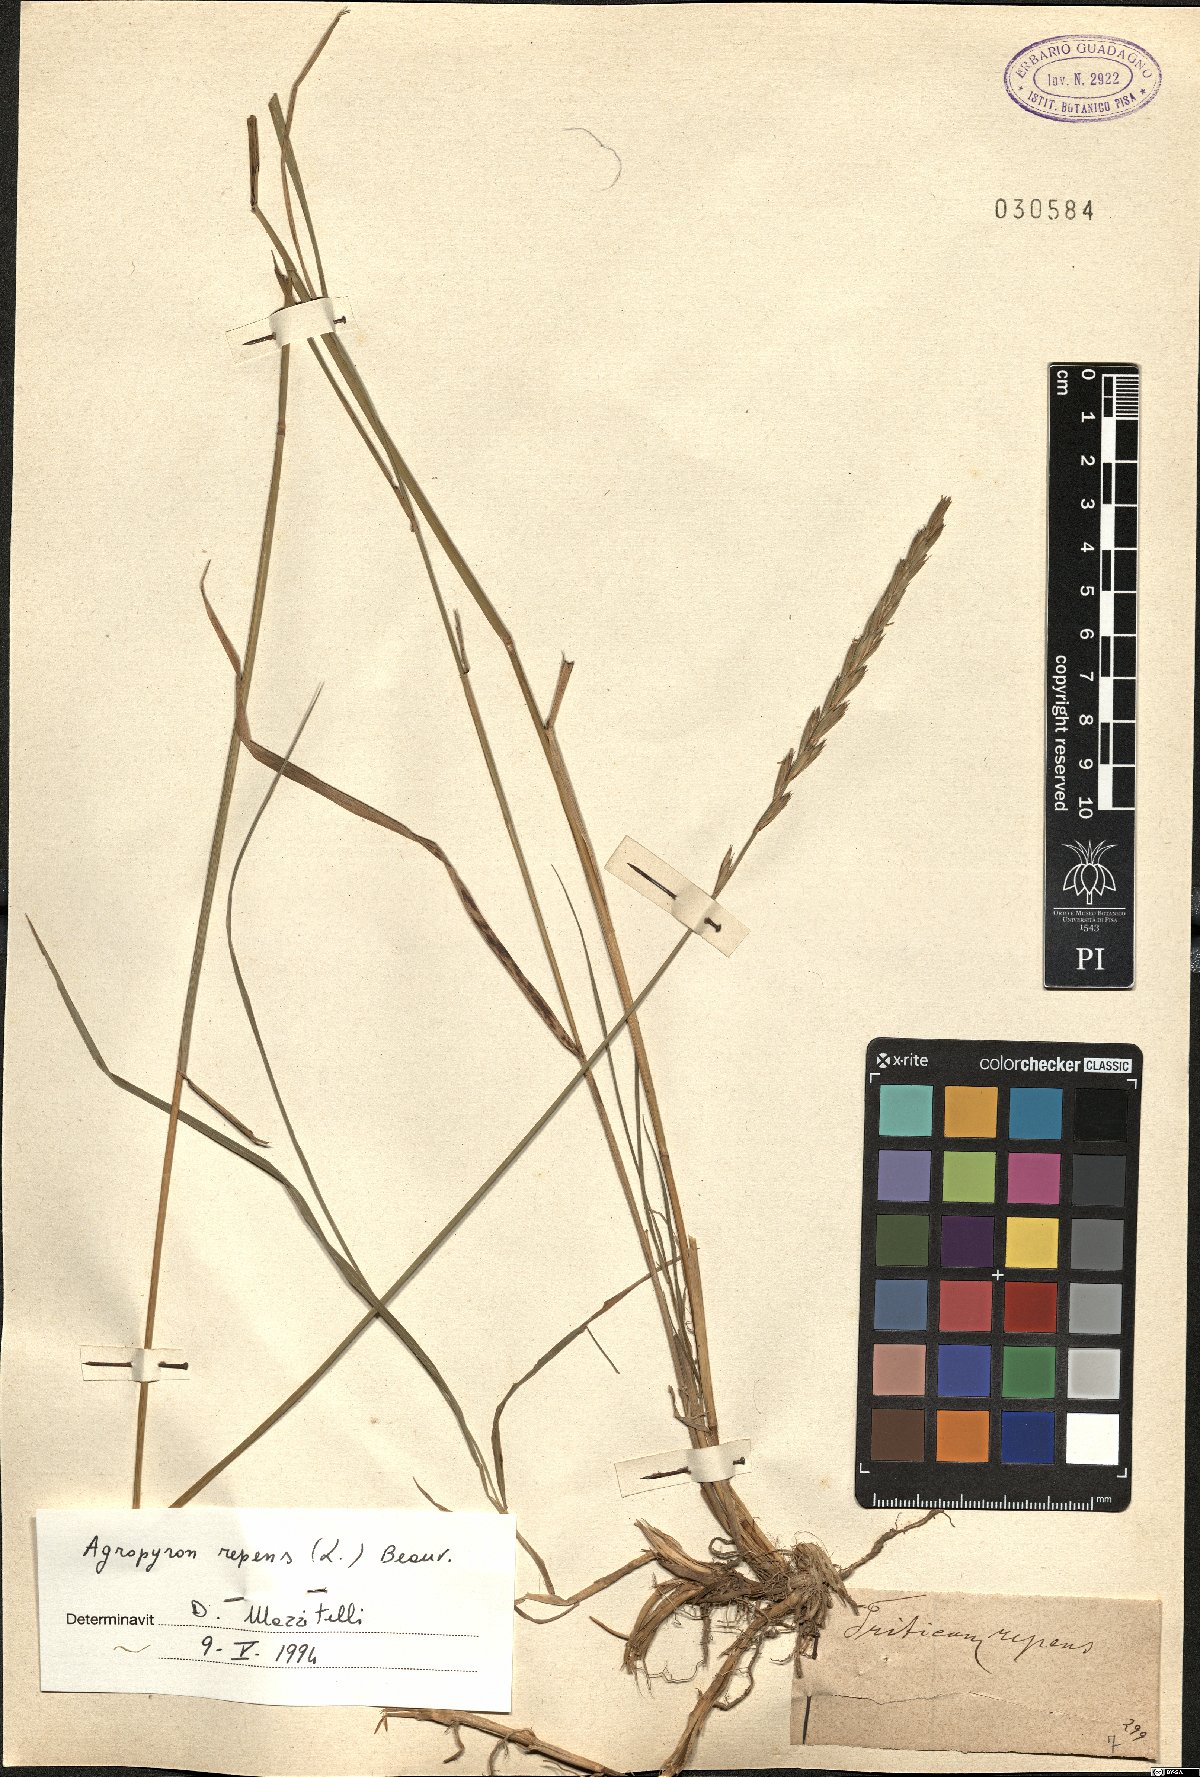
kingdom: Plantae
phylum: Tracheophyta
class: Liliopsida
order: Poales
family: Poaceae
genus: Elymus
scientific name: Elymus repens
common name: Quackgrass
